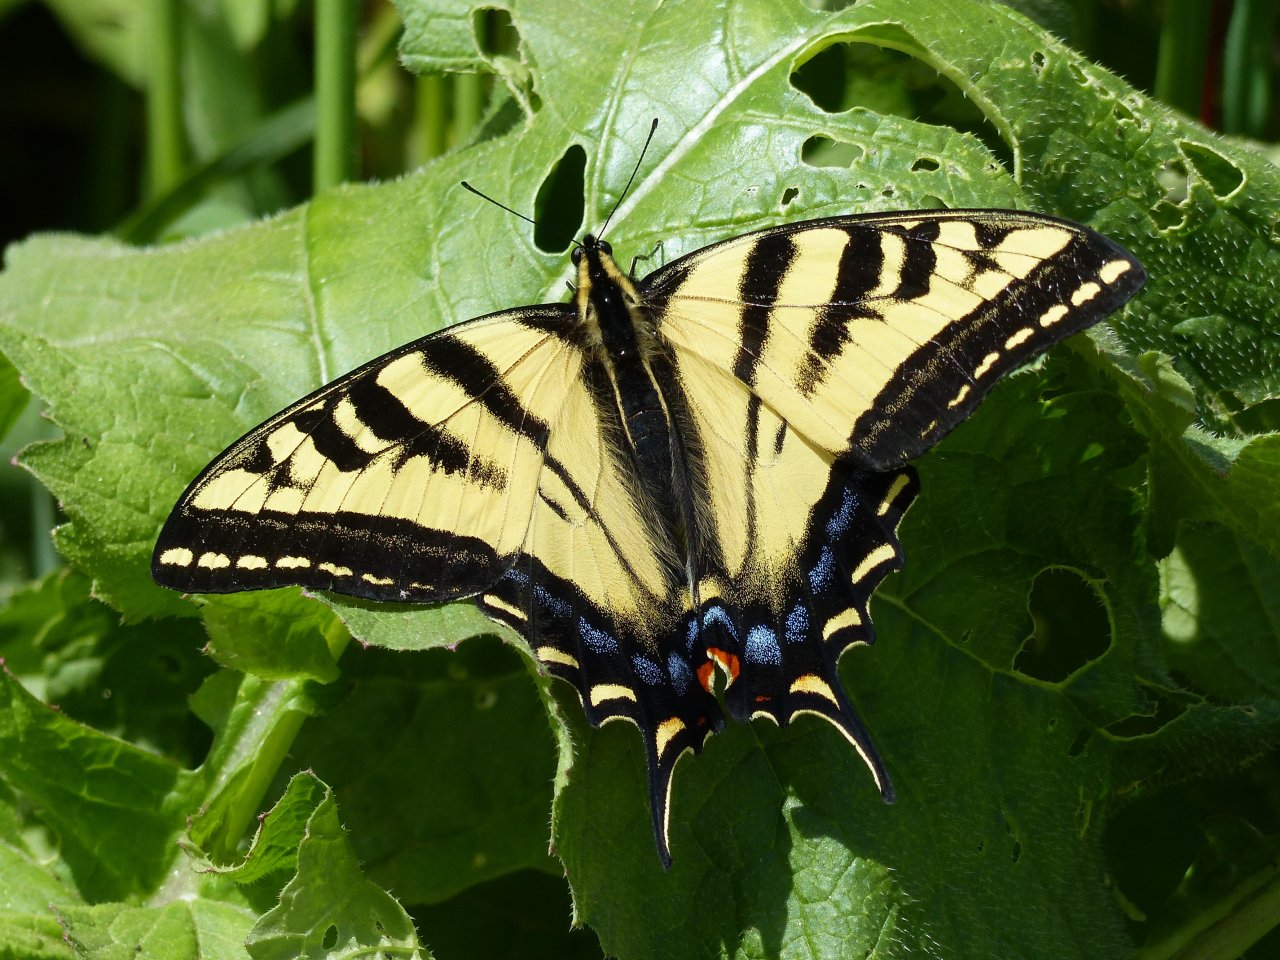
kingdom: Animalia
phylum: Arthropoda
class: Insecta
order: Lepidoptera
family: Papilionidae
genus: Pterourus
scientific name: Pterourus rutulus
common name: Western Tiger Swallowtail
